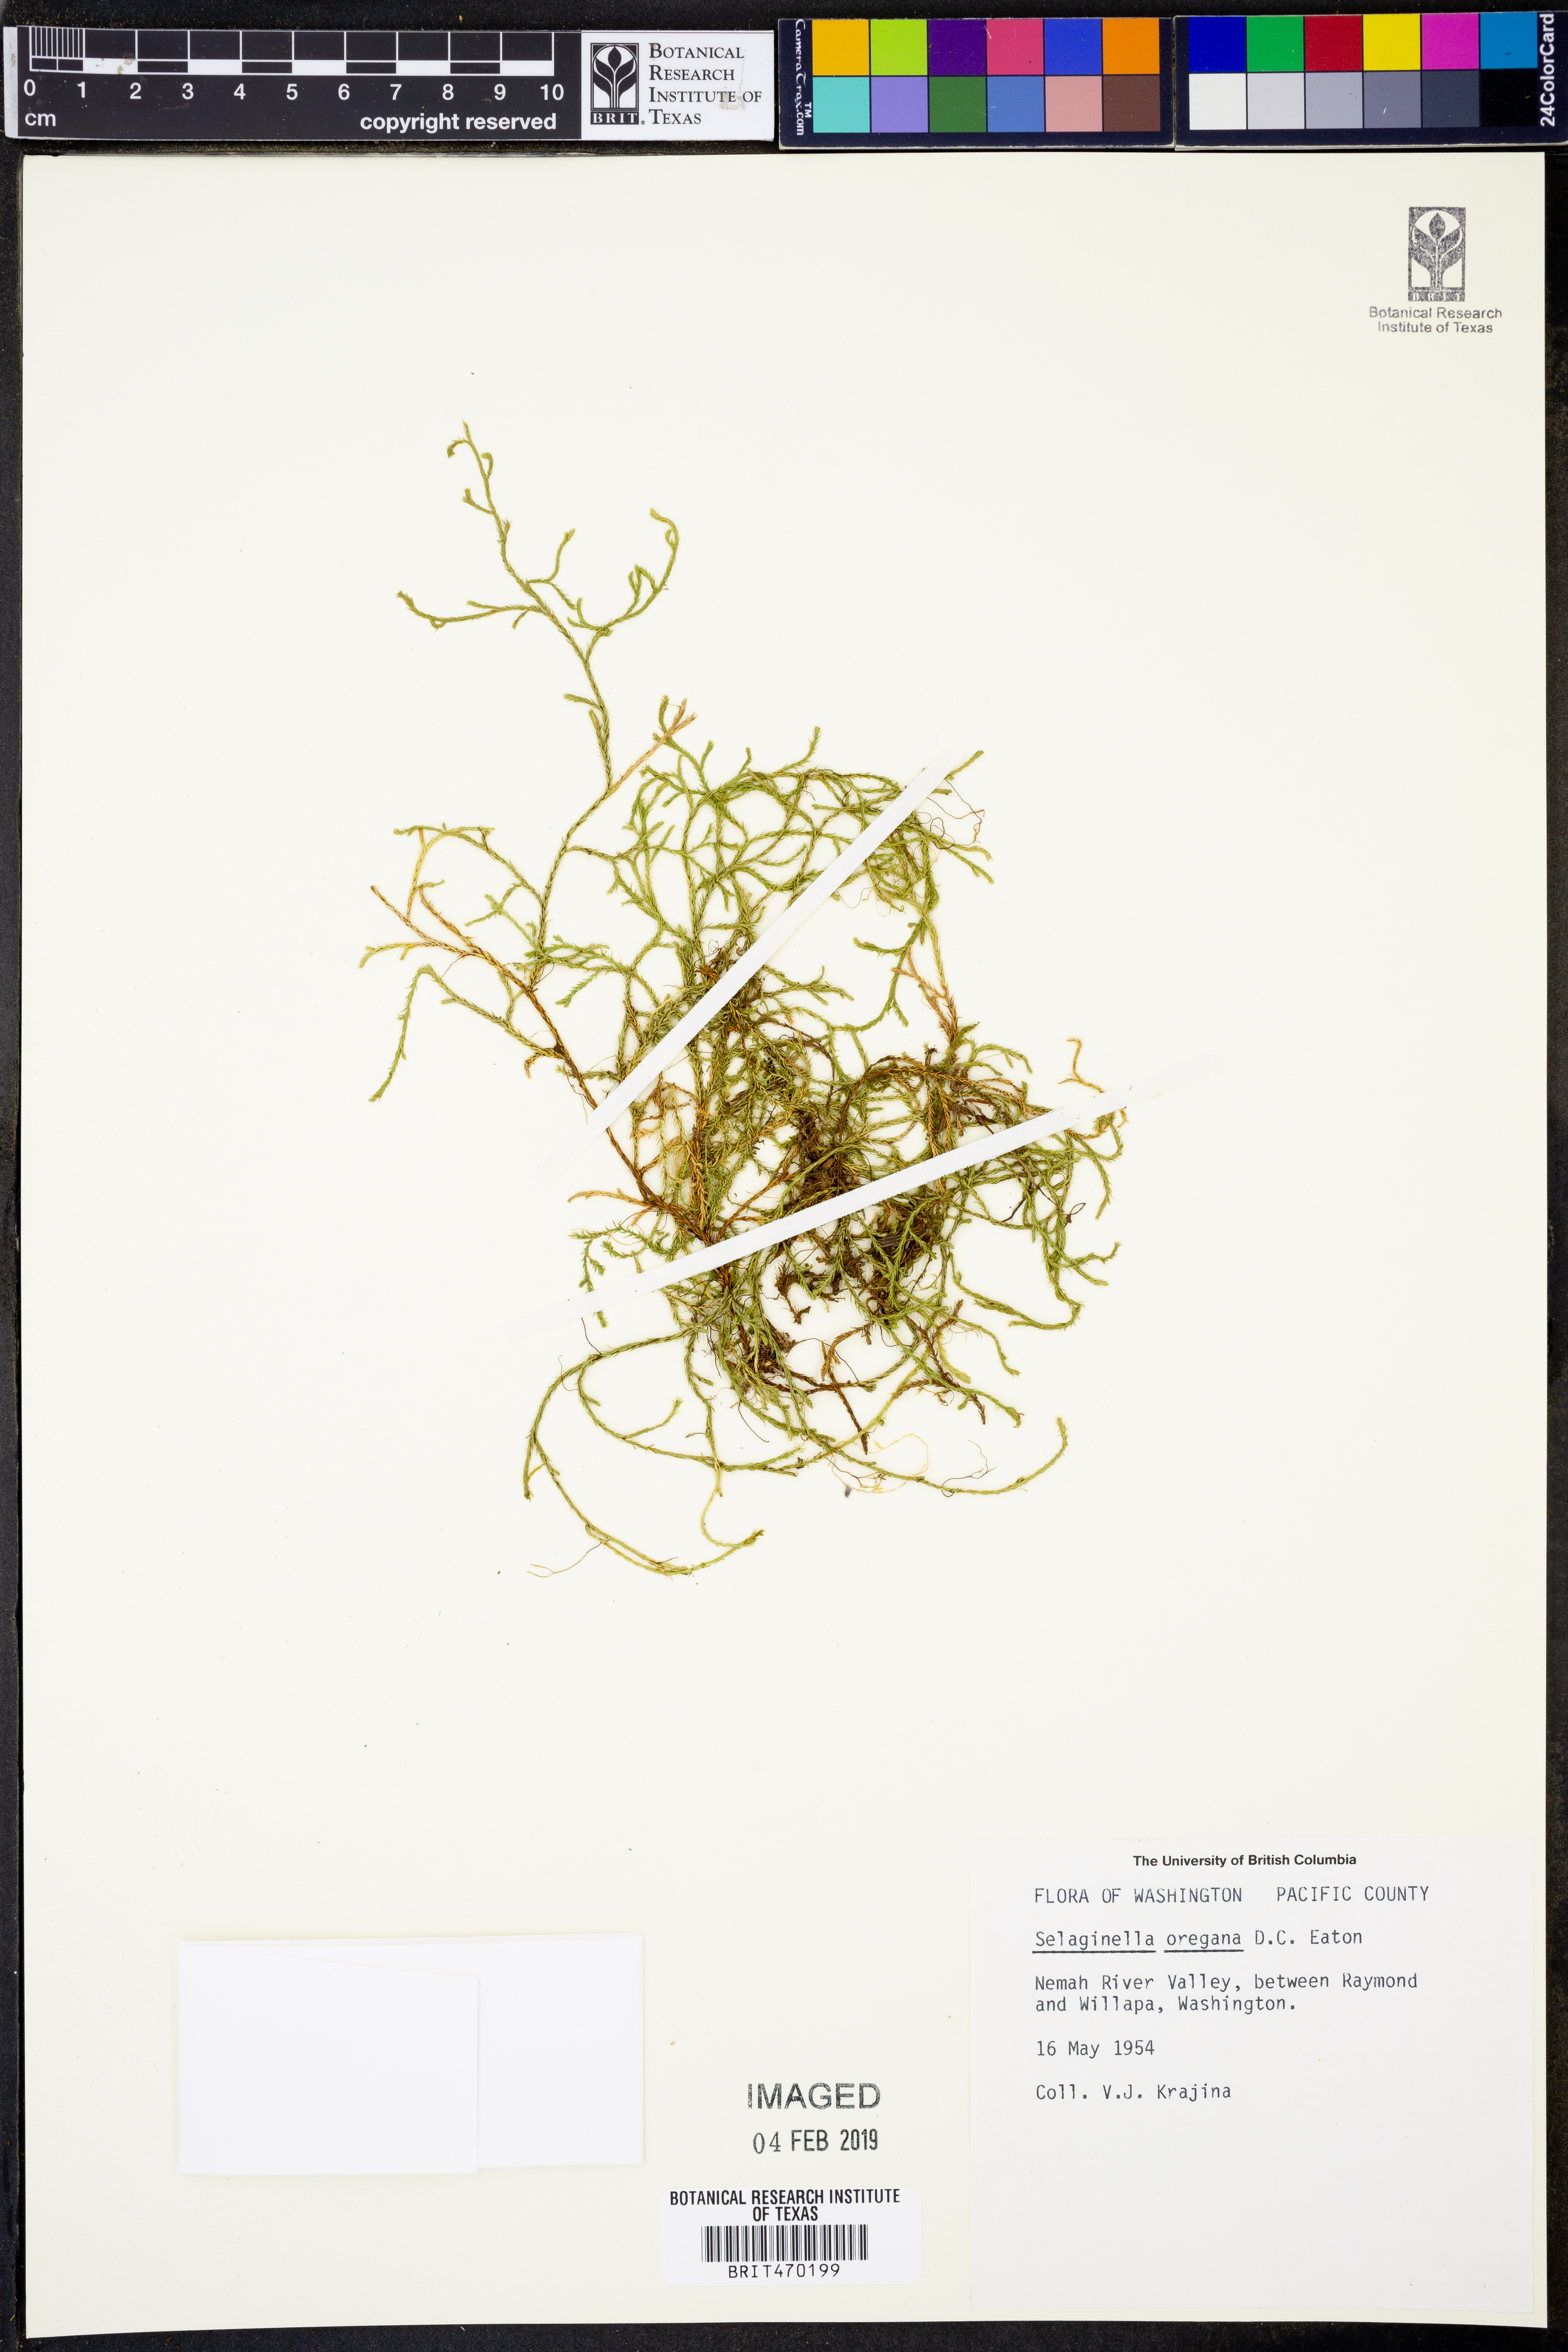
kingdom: Plantae
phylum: Tracheophyta
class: Lycopodiopsida
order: Selaginellales
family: Selaginellaceae
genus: Selaginella
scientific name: Selaginella oregana
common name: Oregon selaginella
